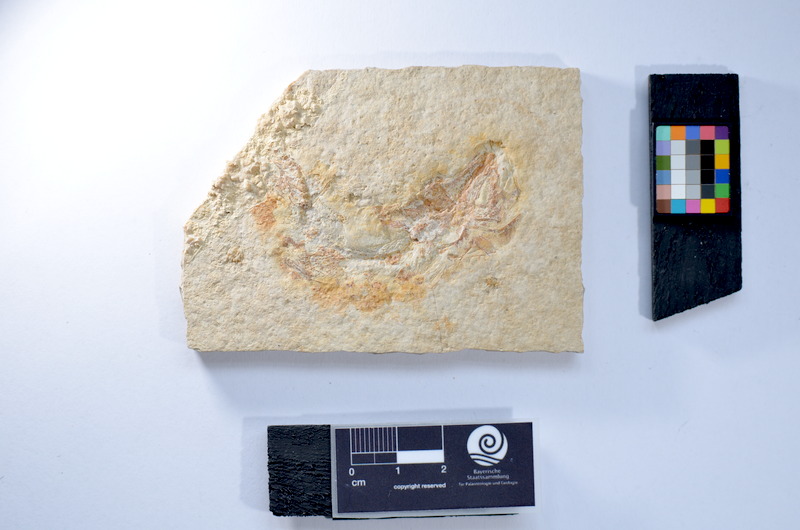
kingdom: Animalia
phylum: Chordata
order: Salmoniformes
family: Orthogonikleithridae
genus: Leptolepides
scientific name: Leptolepides sprattiformis
